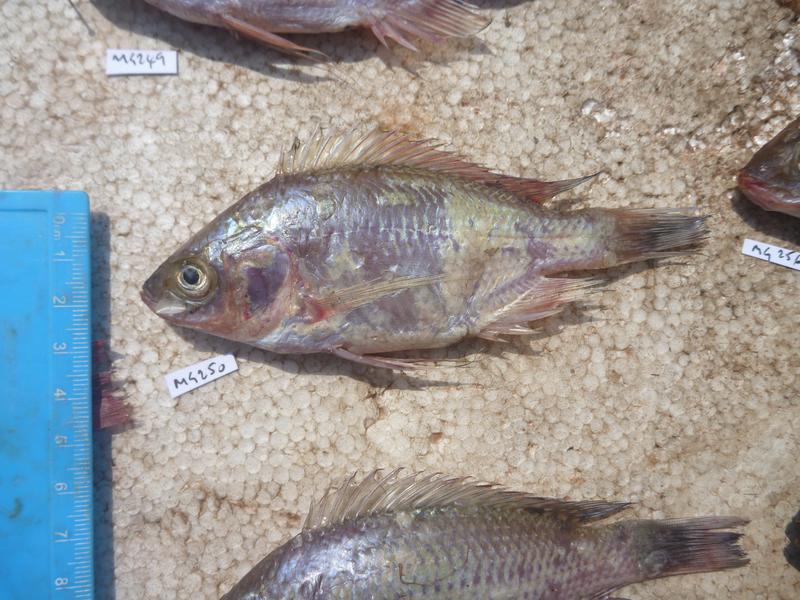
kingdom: Animalia
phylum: Chordata
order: Perciformes
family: Cichlidae
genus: Oreochromis
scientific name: Oreochromis esculentus
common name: Carp
